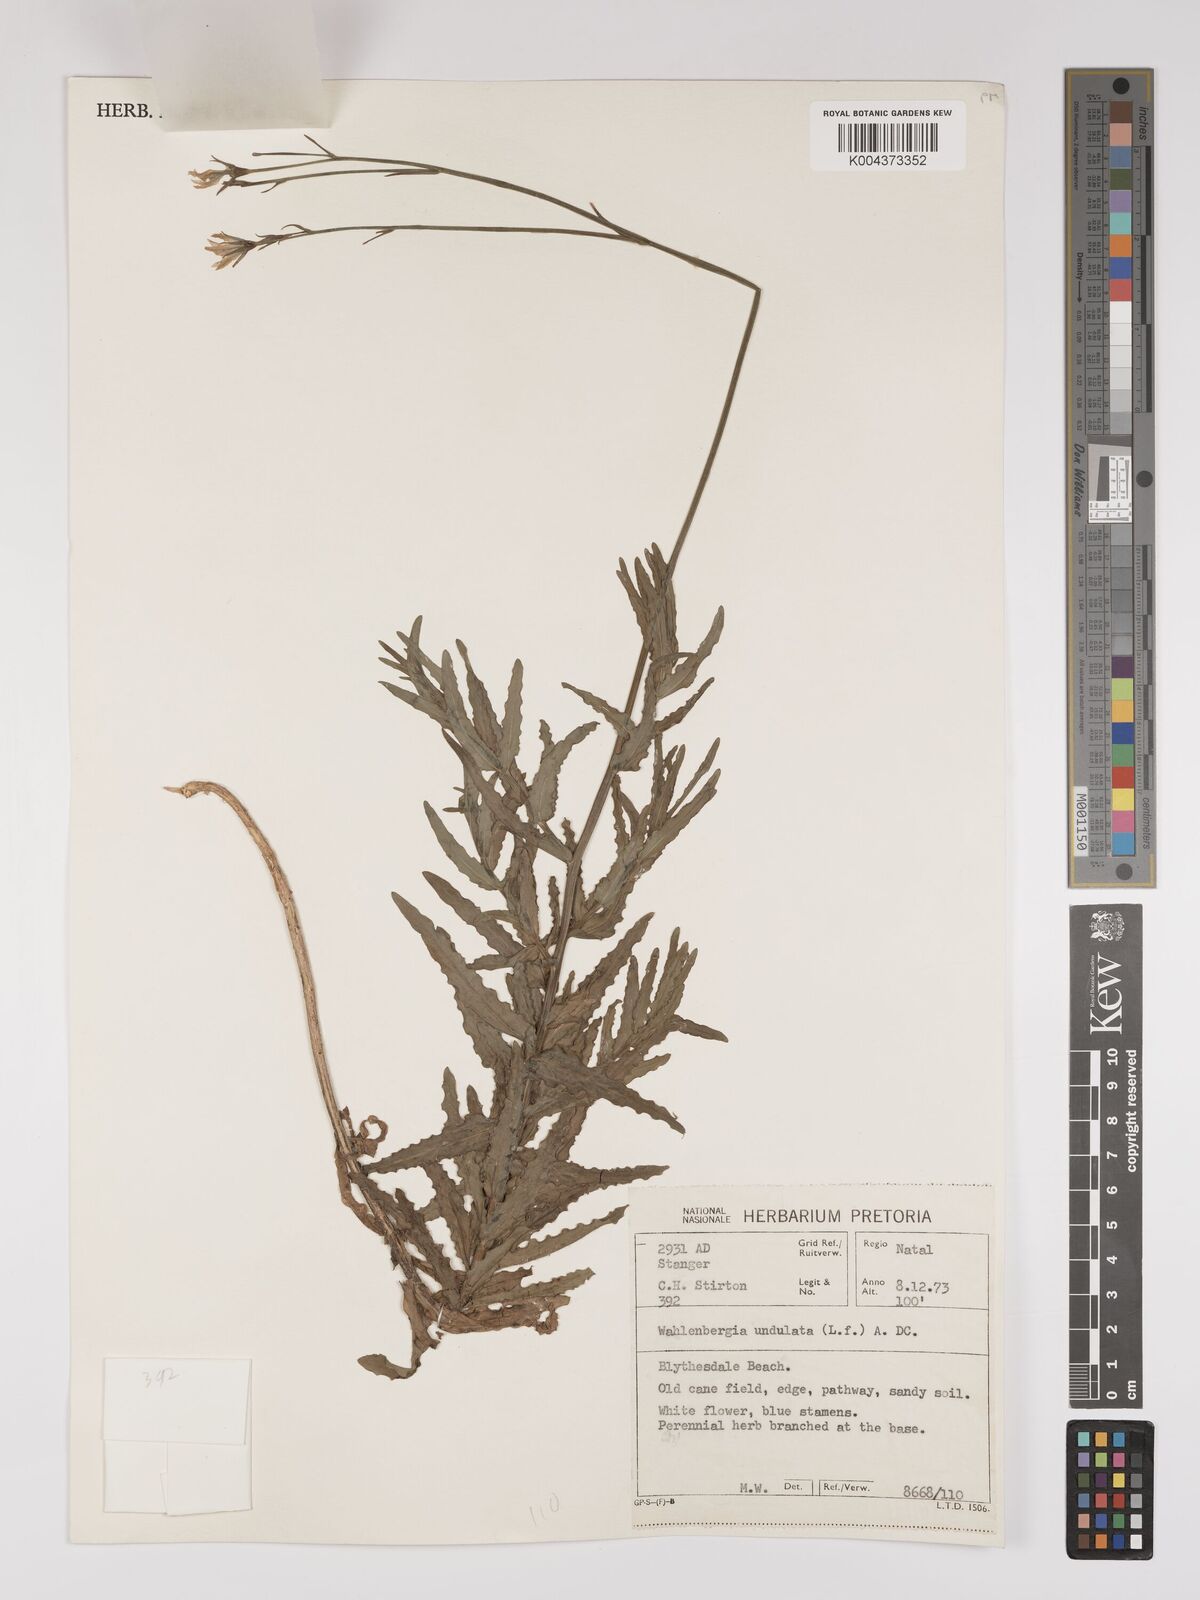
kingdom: Plantae
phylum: Tracheophyta
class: Magnoliopsida
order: Asterales
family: Campanulaceae
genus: Wahlenbergia
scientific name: Wahlenbergia undulata
